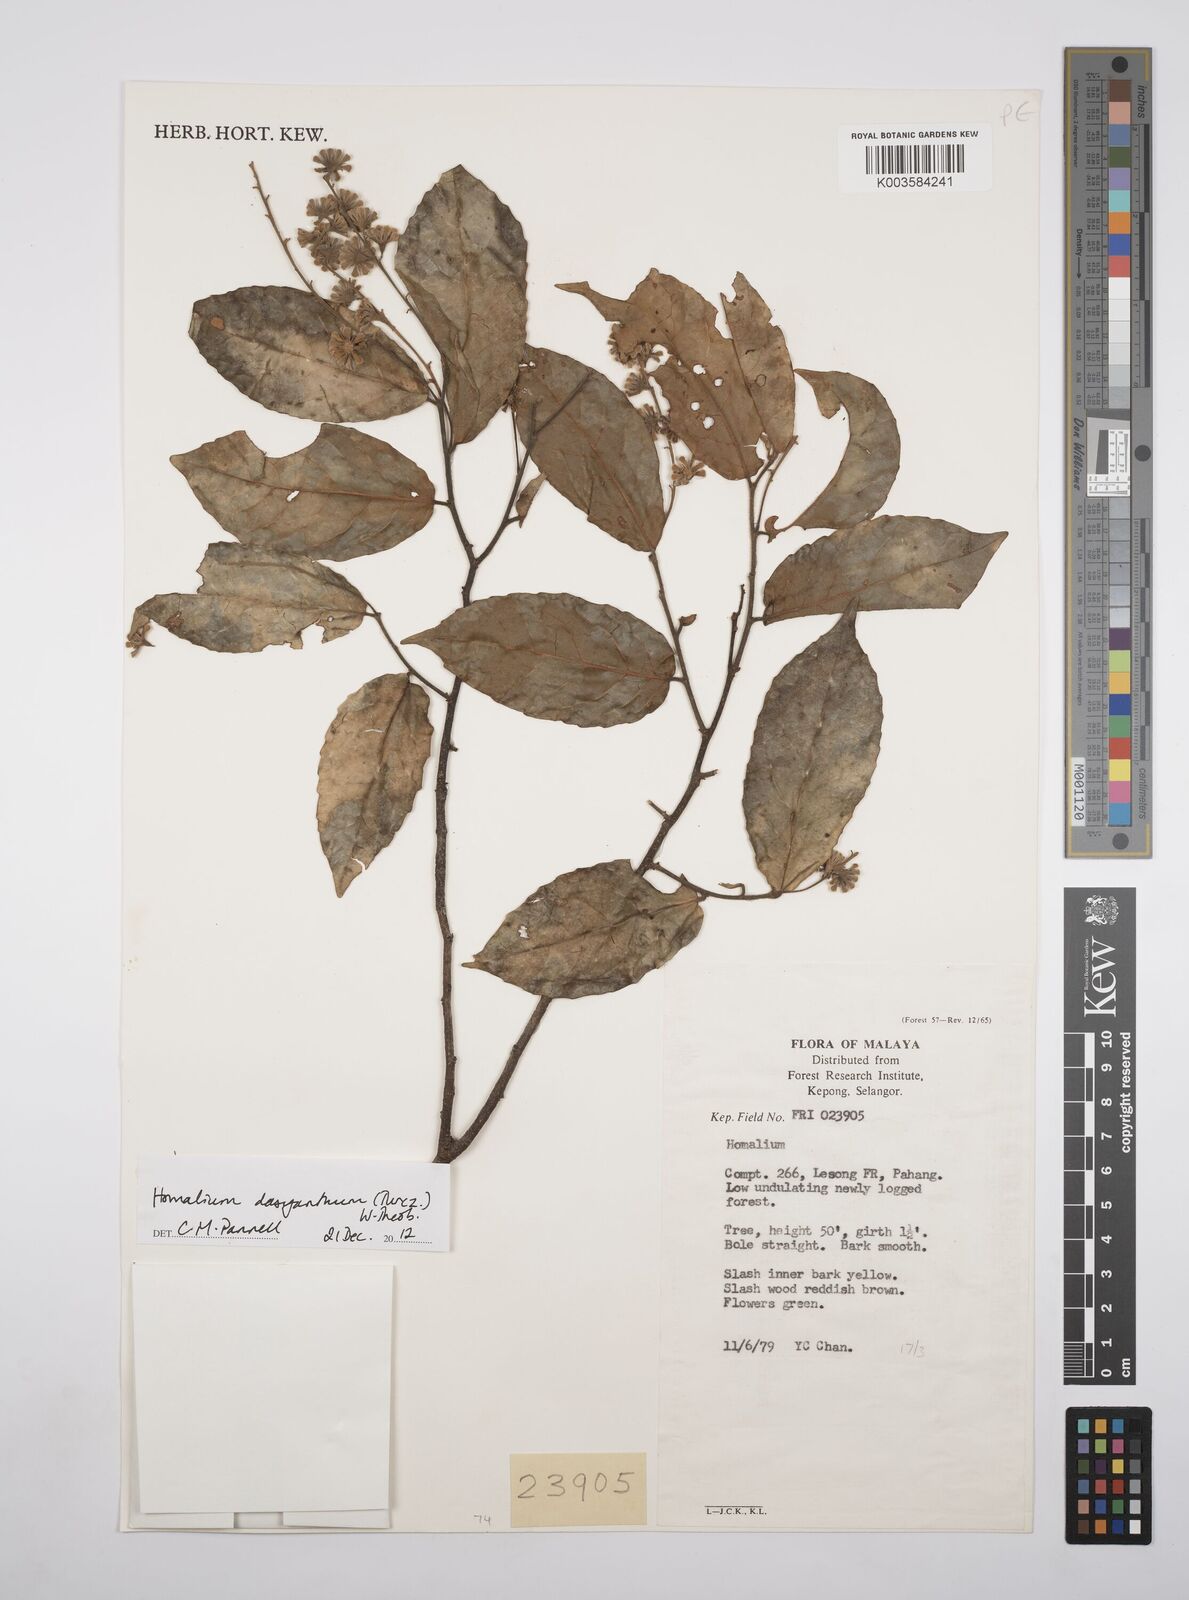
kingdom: Plantae
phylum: Tracheophyta
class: Magnoliopsida
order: Malpighiales
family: Salicaceae
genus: Homalium
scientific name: Homalium dasyanthum
